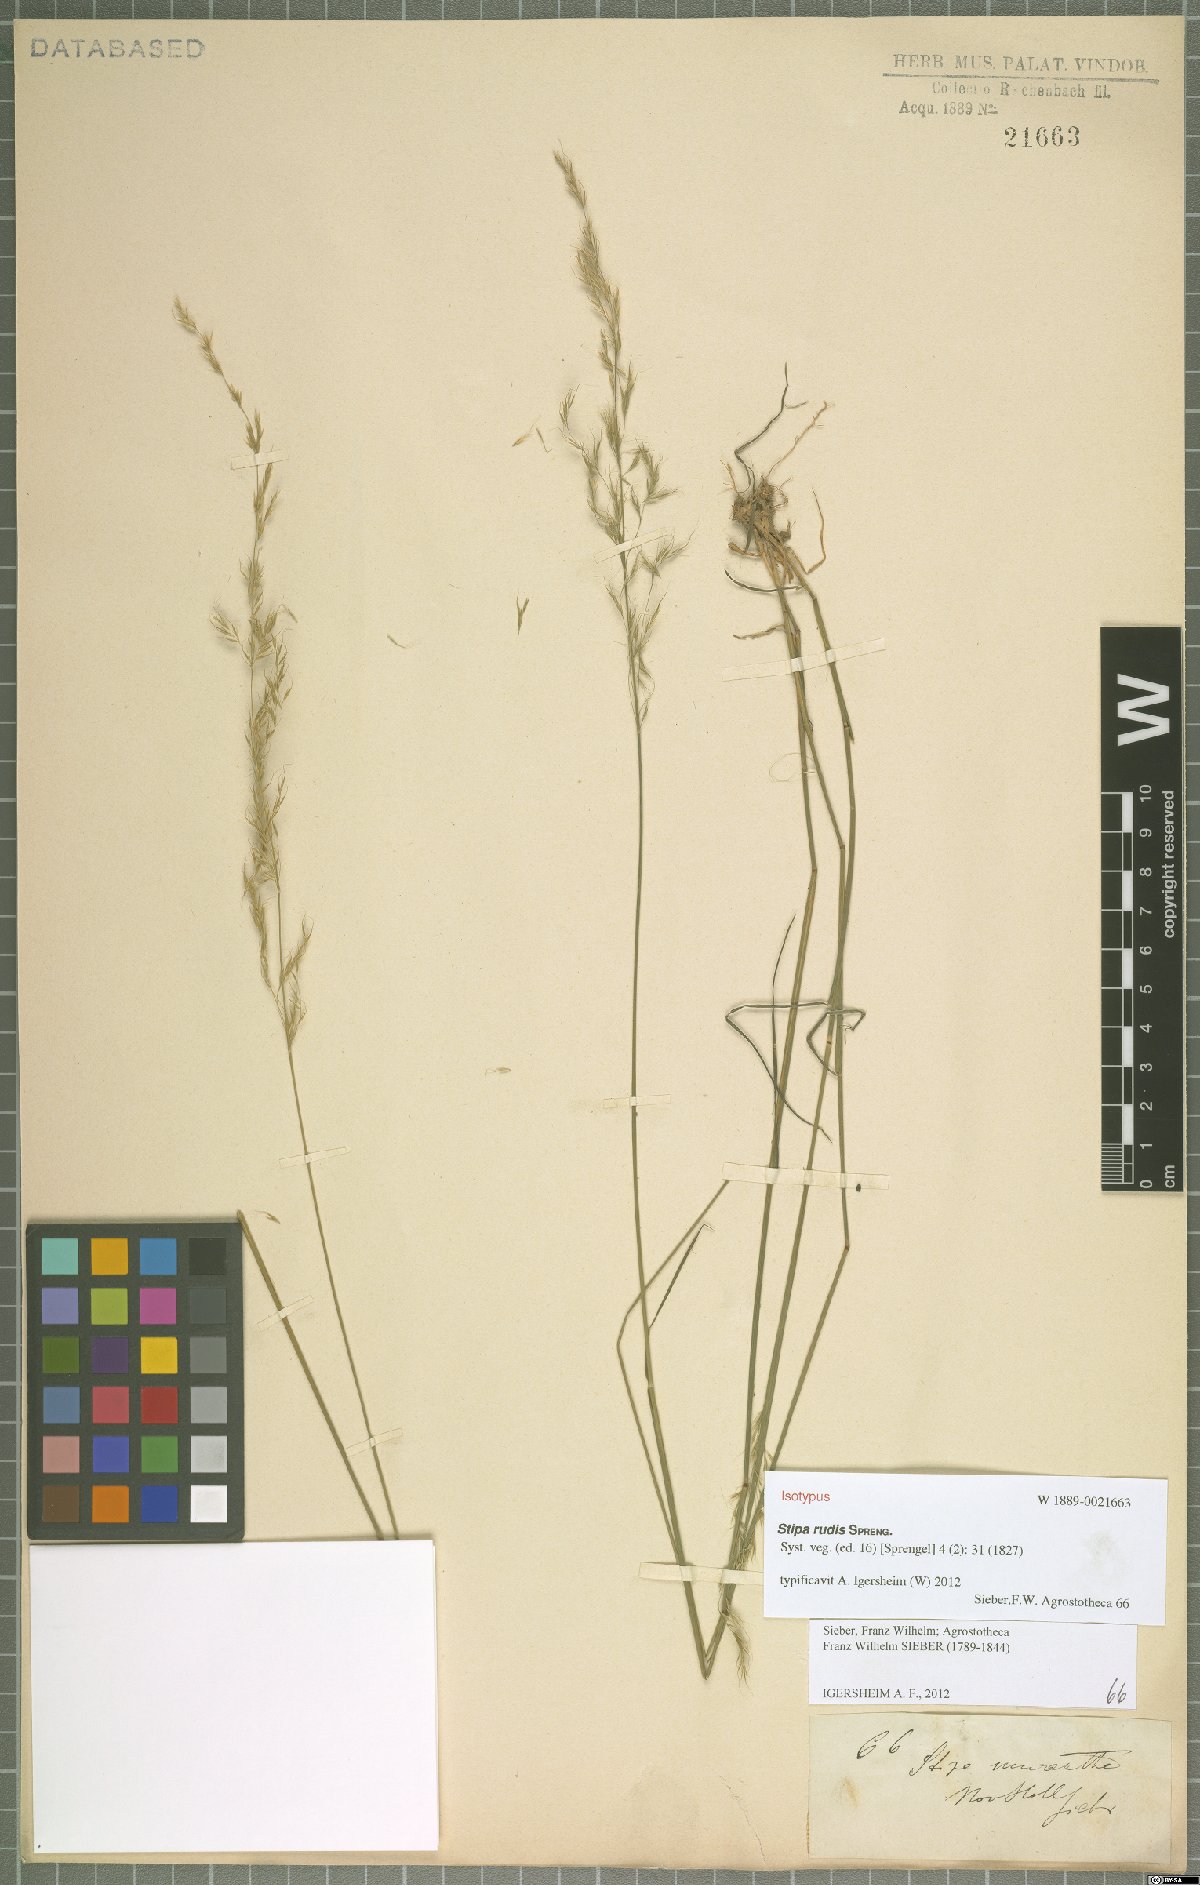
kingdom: Plantae
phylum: Tracheophyta
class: Liliopsida
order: Poales
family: Poaceae
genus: Austrostipa
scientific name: Austrostipa rudis
